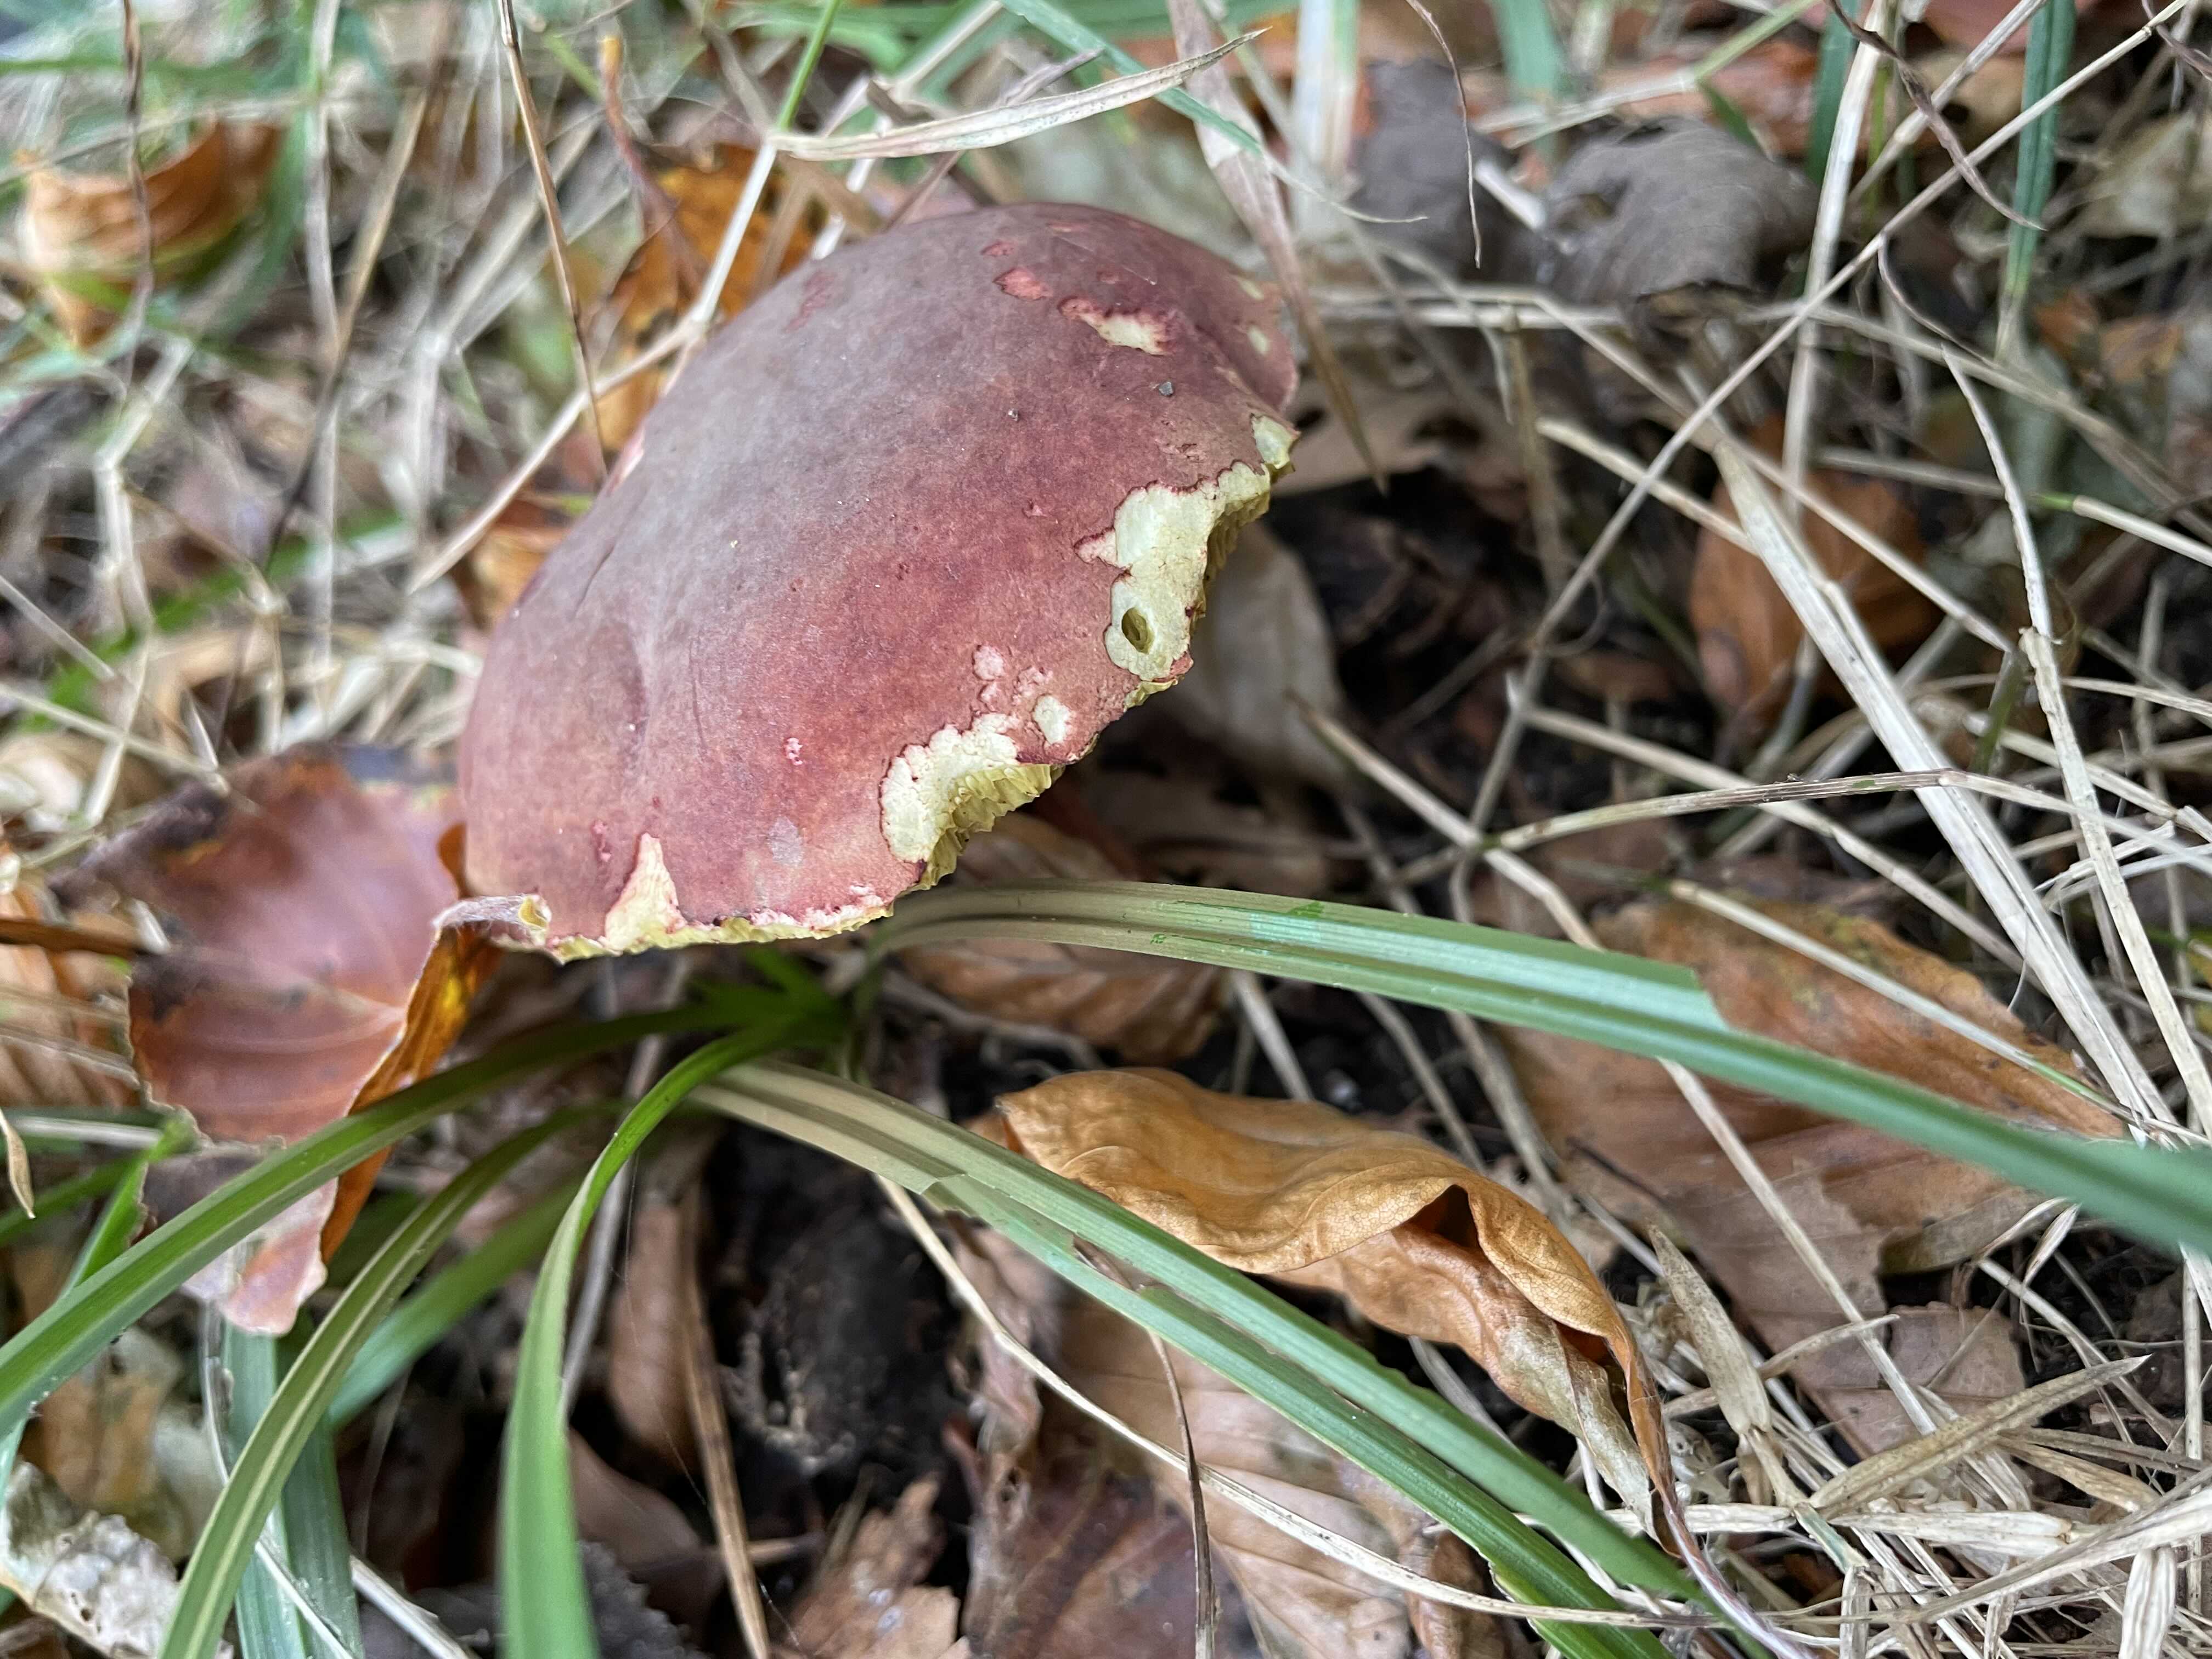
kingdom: Fungi
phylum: Basidiomycota
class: Agaricomycetes
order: Boletales
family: Boletaceae
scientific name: Boletaceae
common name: rørhatfamilien
